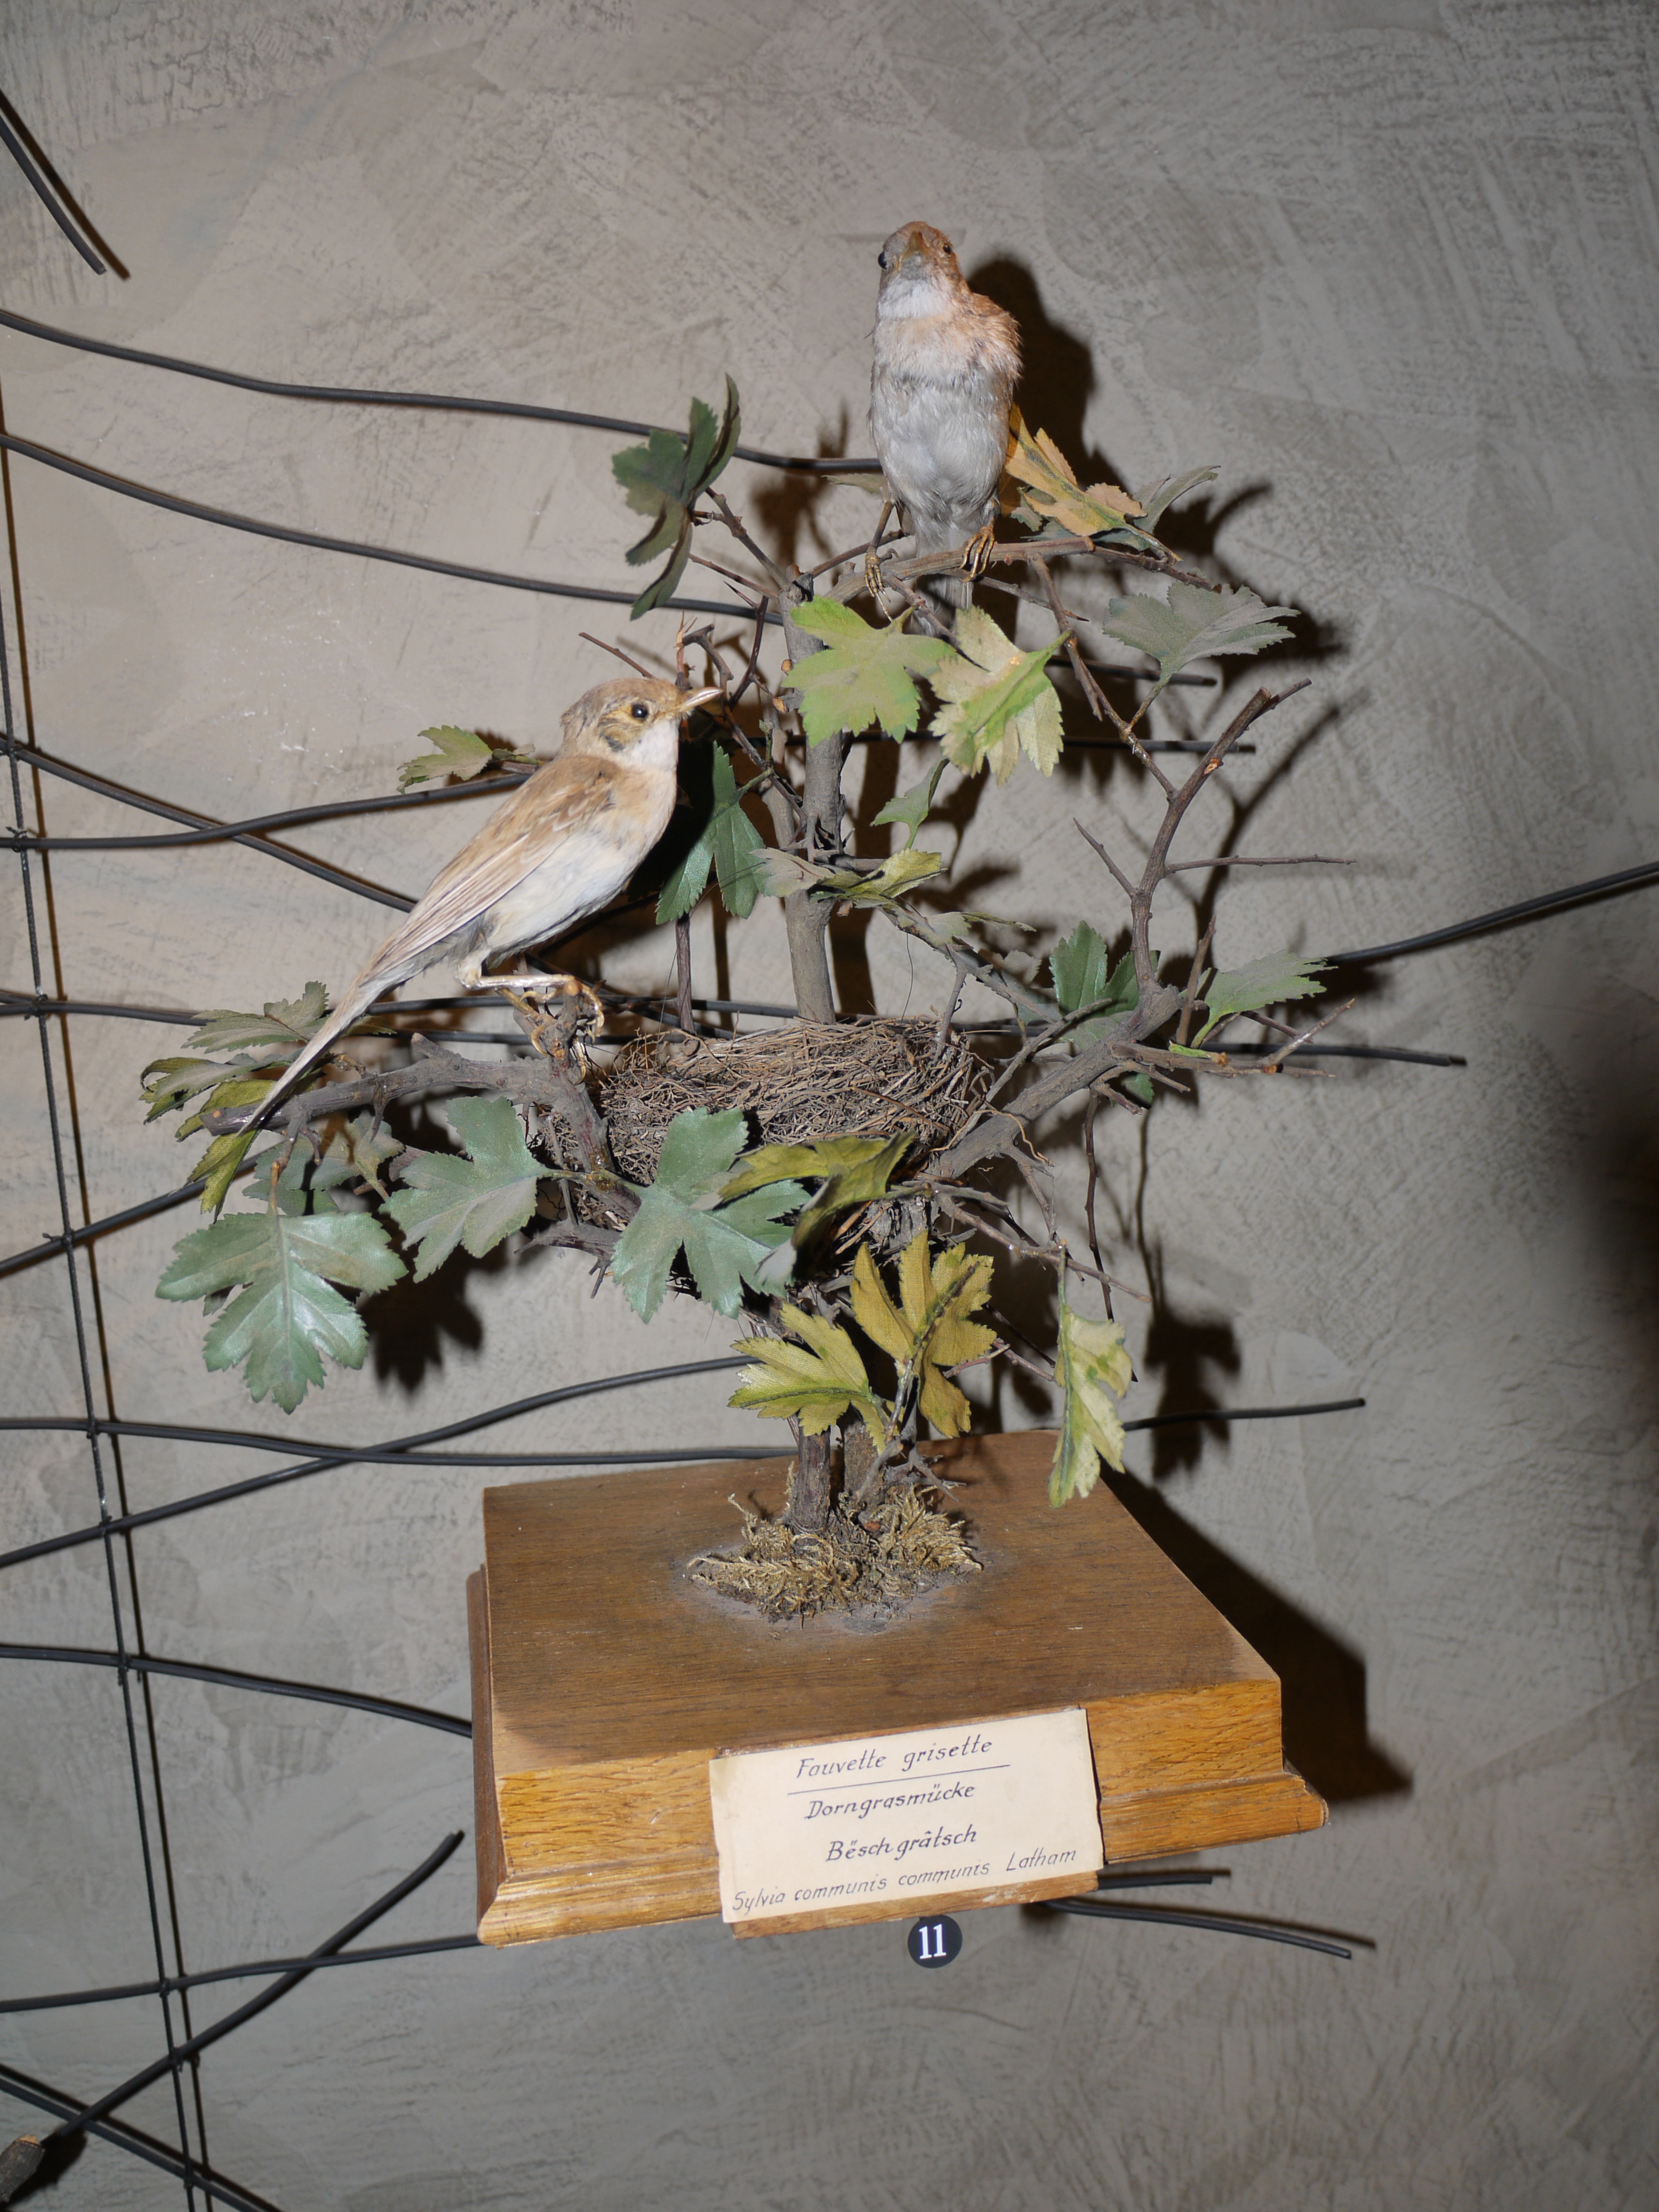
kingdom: Animalia
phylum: Chordata
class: Aves
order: Passeriformes
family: Sylviidae
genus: Sylvia
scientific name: Sylvia communis
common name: Common whitethroat
